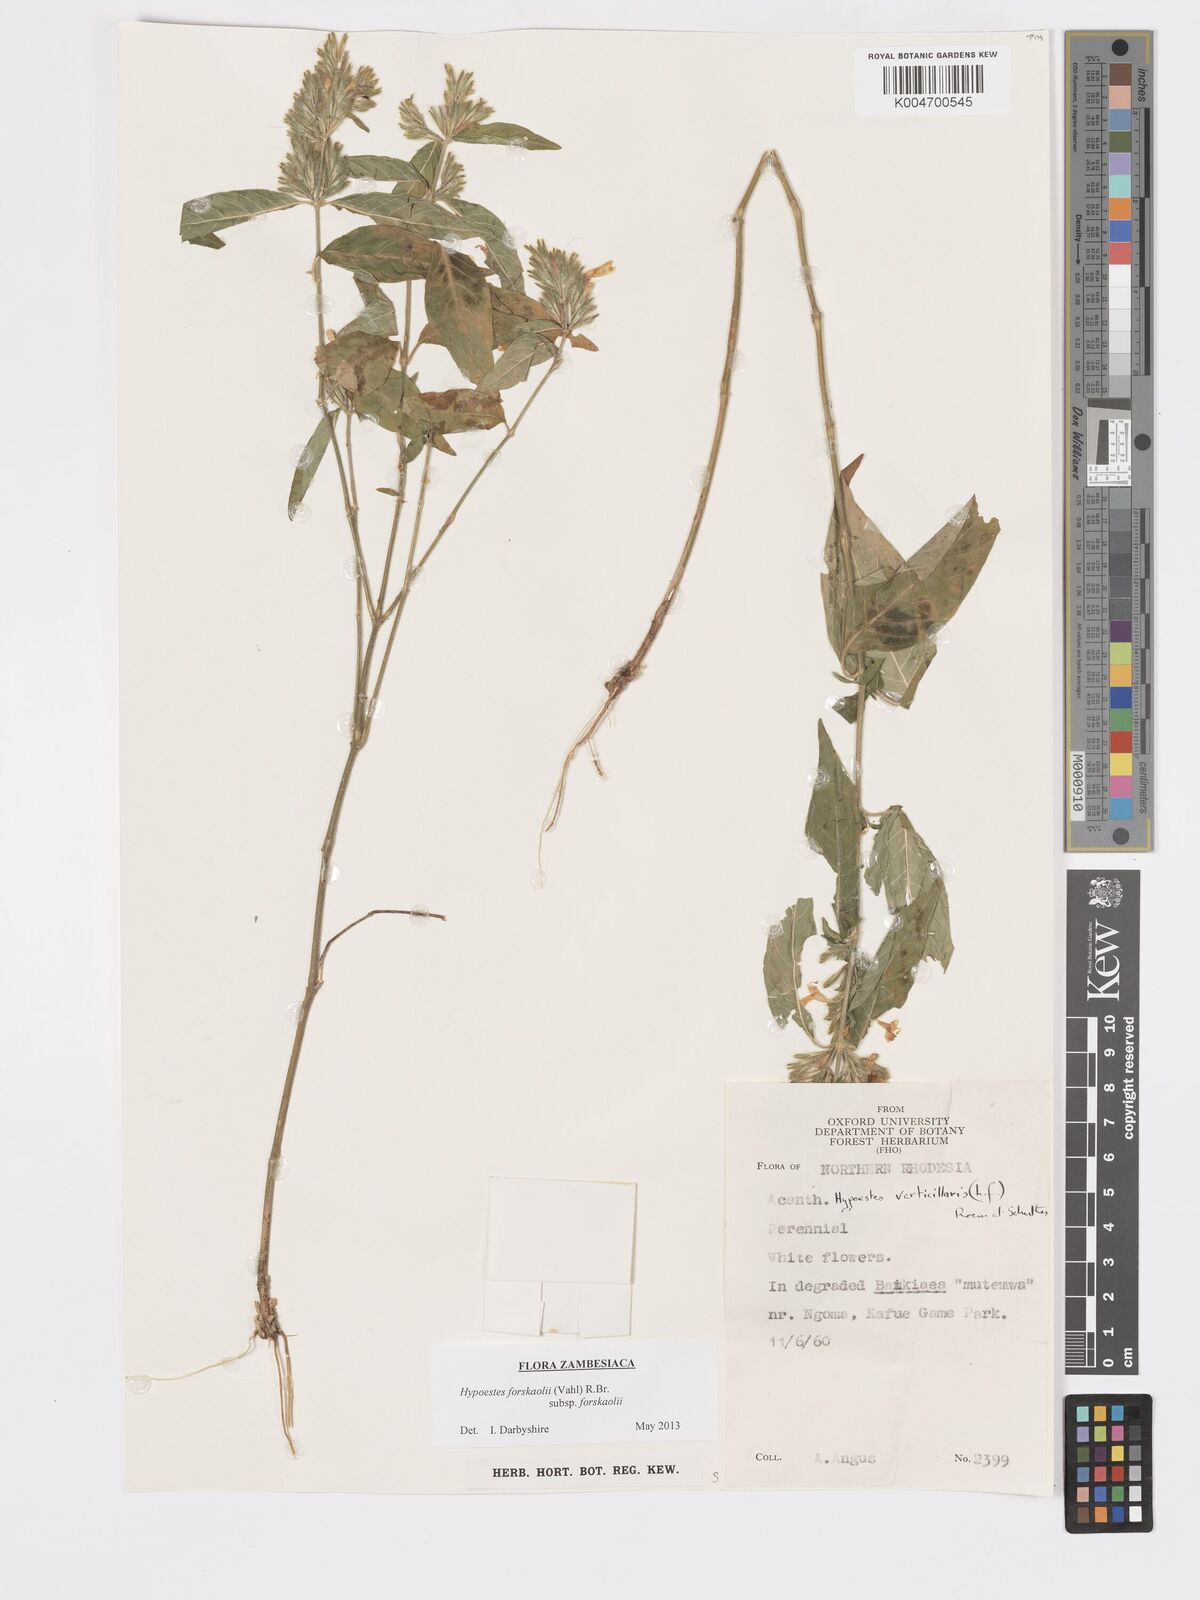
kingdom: Plantae
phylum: Tracheophyta
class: Magnoliopsida
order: Lamiales
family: Acanthaceae
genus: Hypoestes
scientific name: Hypoestes forskaolii
